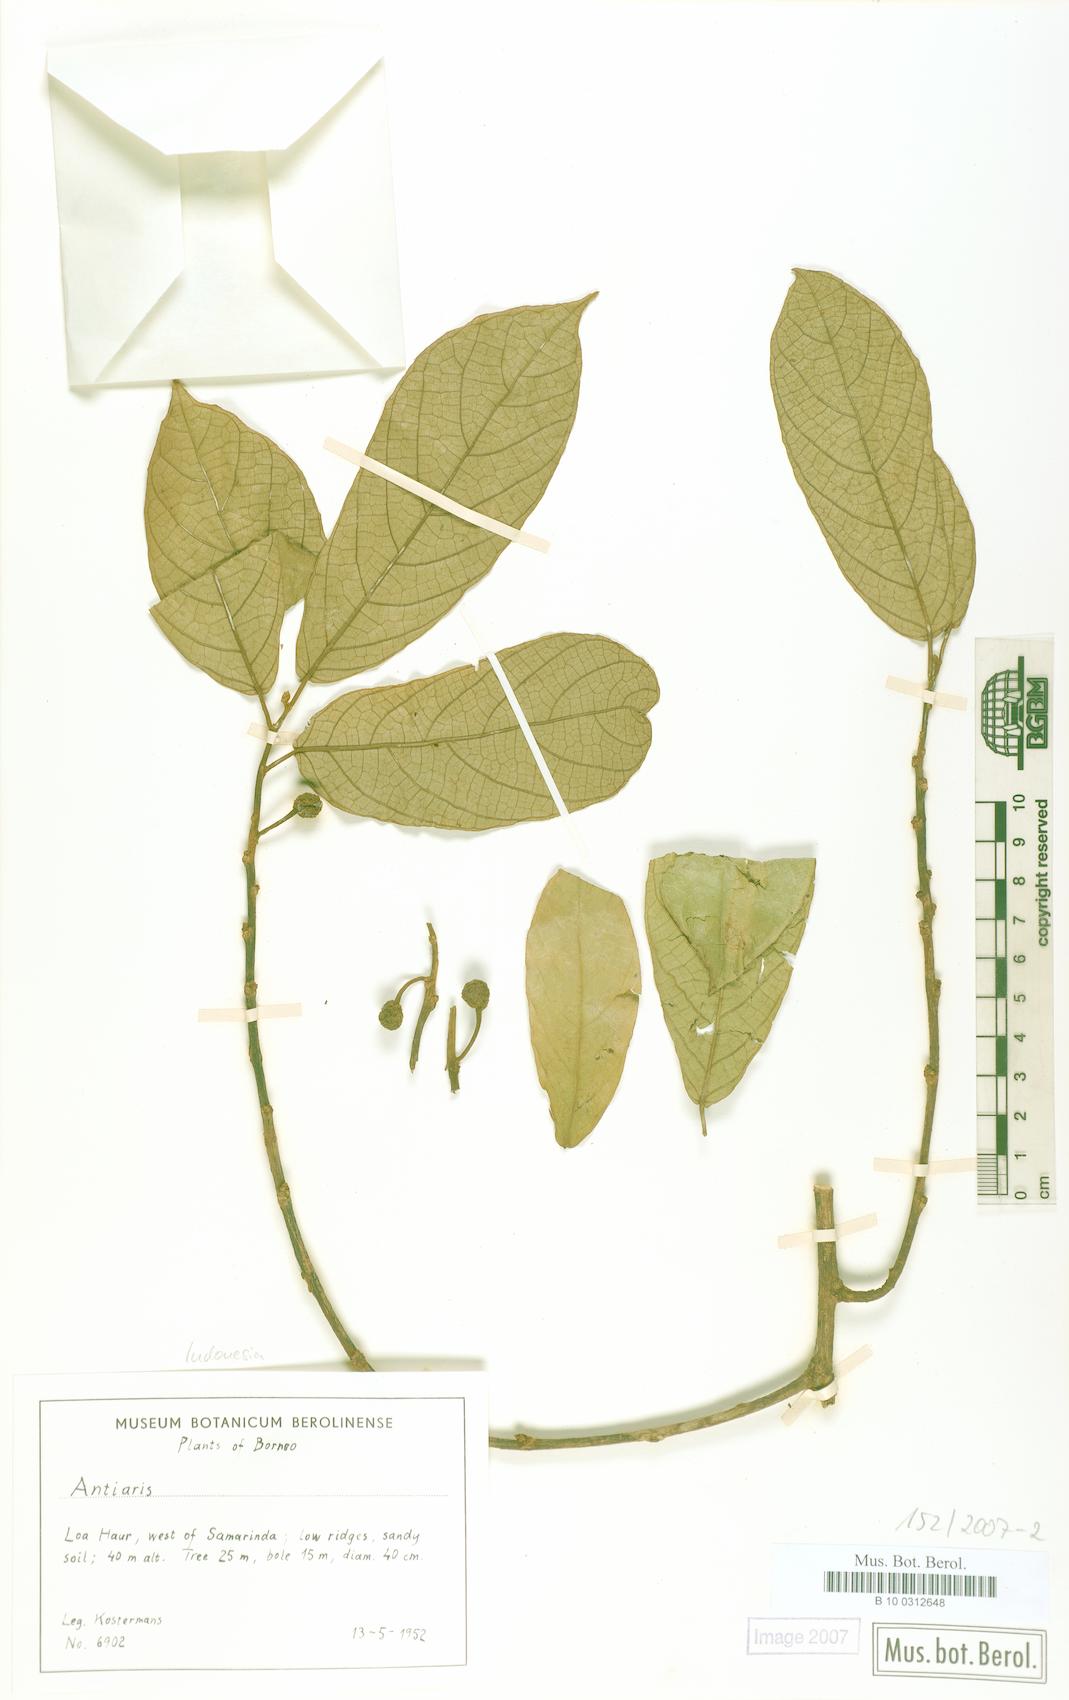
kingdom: Plantae
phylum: Tracheophyta
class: Magnoliopsida
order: Rosales
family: Moraceae
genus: Antiaris
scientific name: Antiaris
